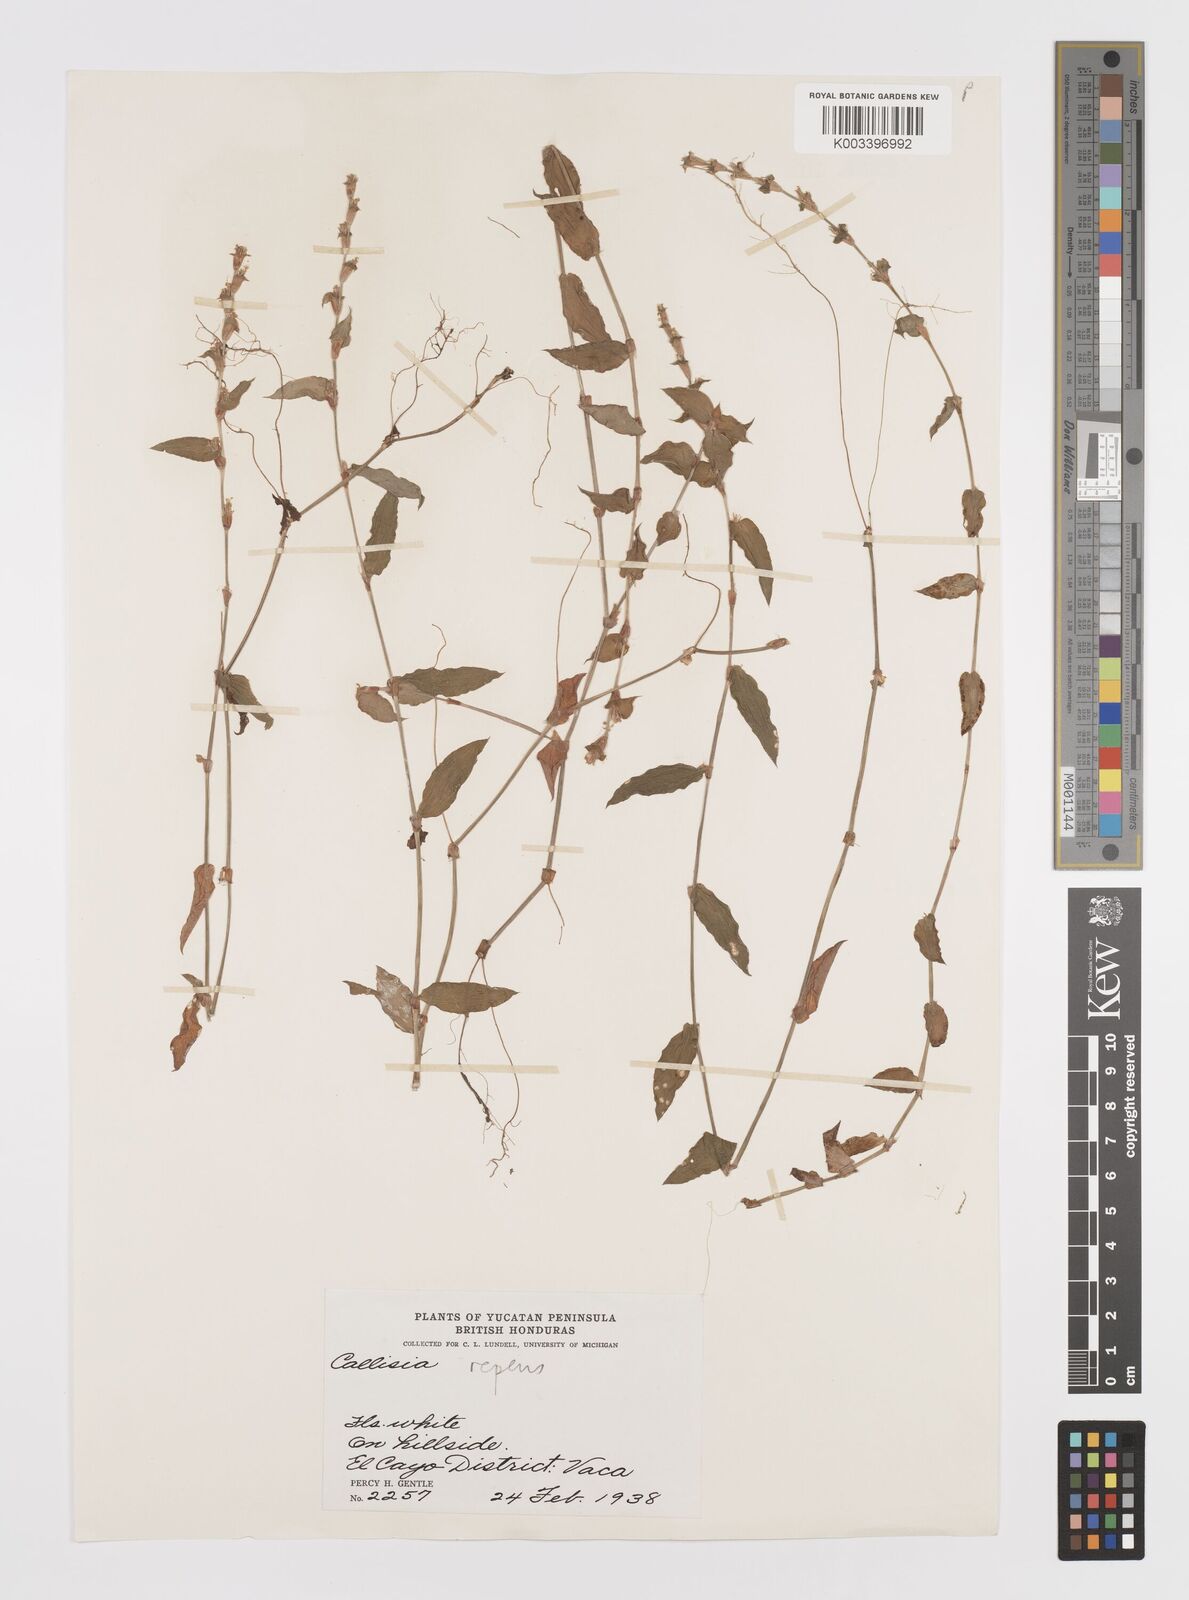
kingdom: Plantae
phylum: Tracheophyta
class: Liliopsida
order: Commelinales
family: Commelinaceae
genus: Callisia
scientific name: Callisia repens
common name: Creeping inchplant
